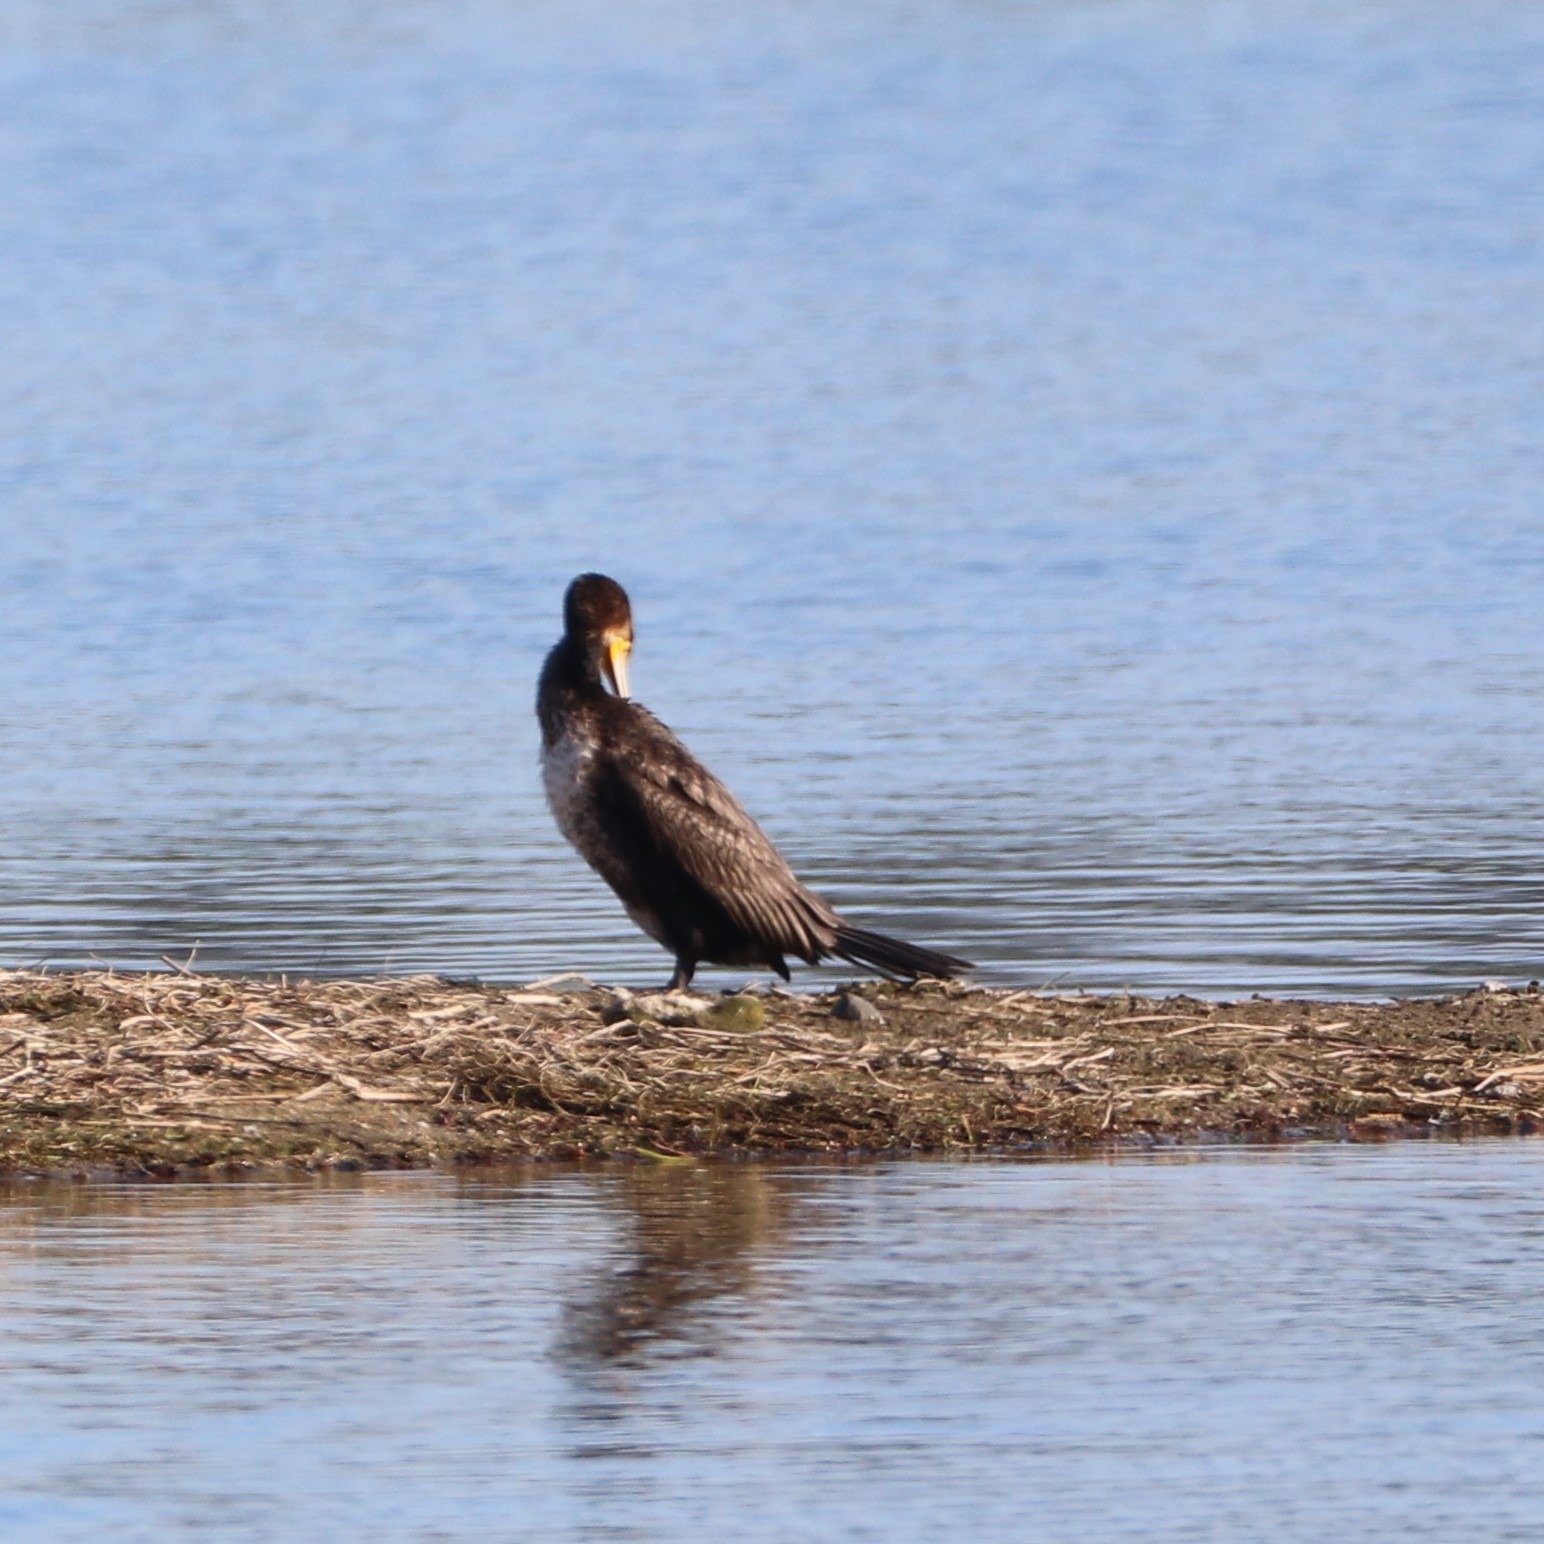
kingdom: Animalia
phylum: Chordata
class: Aves
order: Suliformes
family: Phalacrocoracidae
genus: Phalacrocorax
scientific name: Phalacrocorax carbo
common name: Skarv
